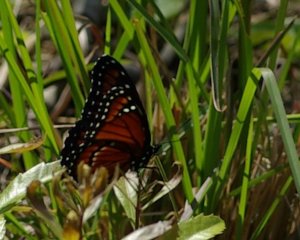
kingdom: Animalia
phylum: Arthropoda
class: Insecta
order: Lepidoptera
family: Nymphalidae
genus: Limenitis
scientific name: Limenitis archippus
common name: Viceroy
